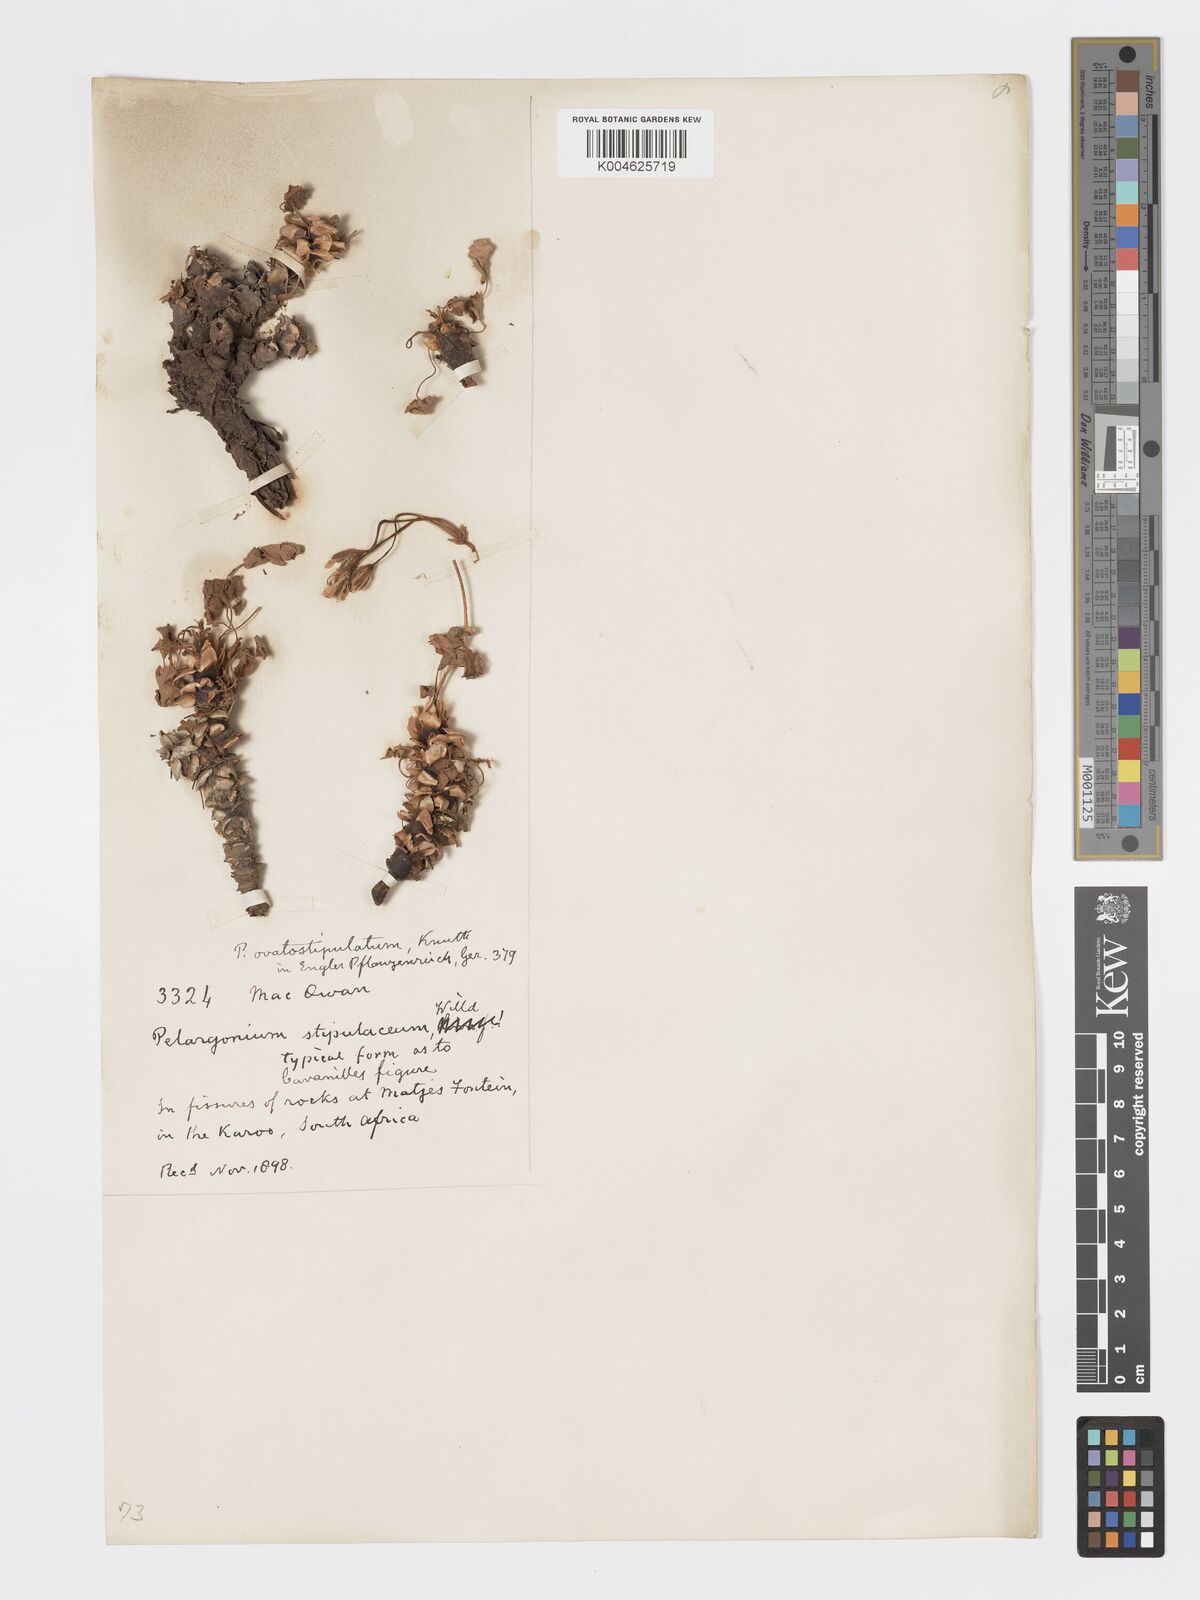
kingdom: Plantae
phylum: Tracheophyta
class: Magnoliopsida
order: Geraniales
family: Geraniaceae
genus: Pelargonium
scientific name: Pelargonium stipulaceum
